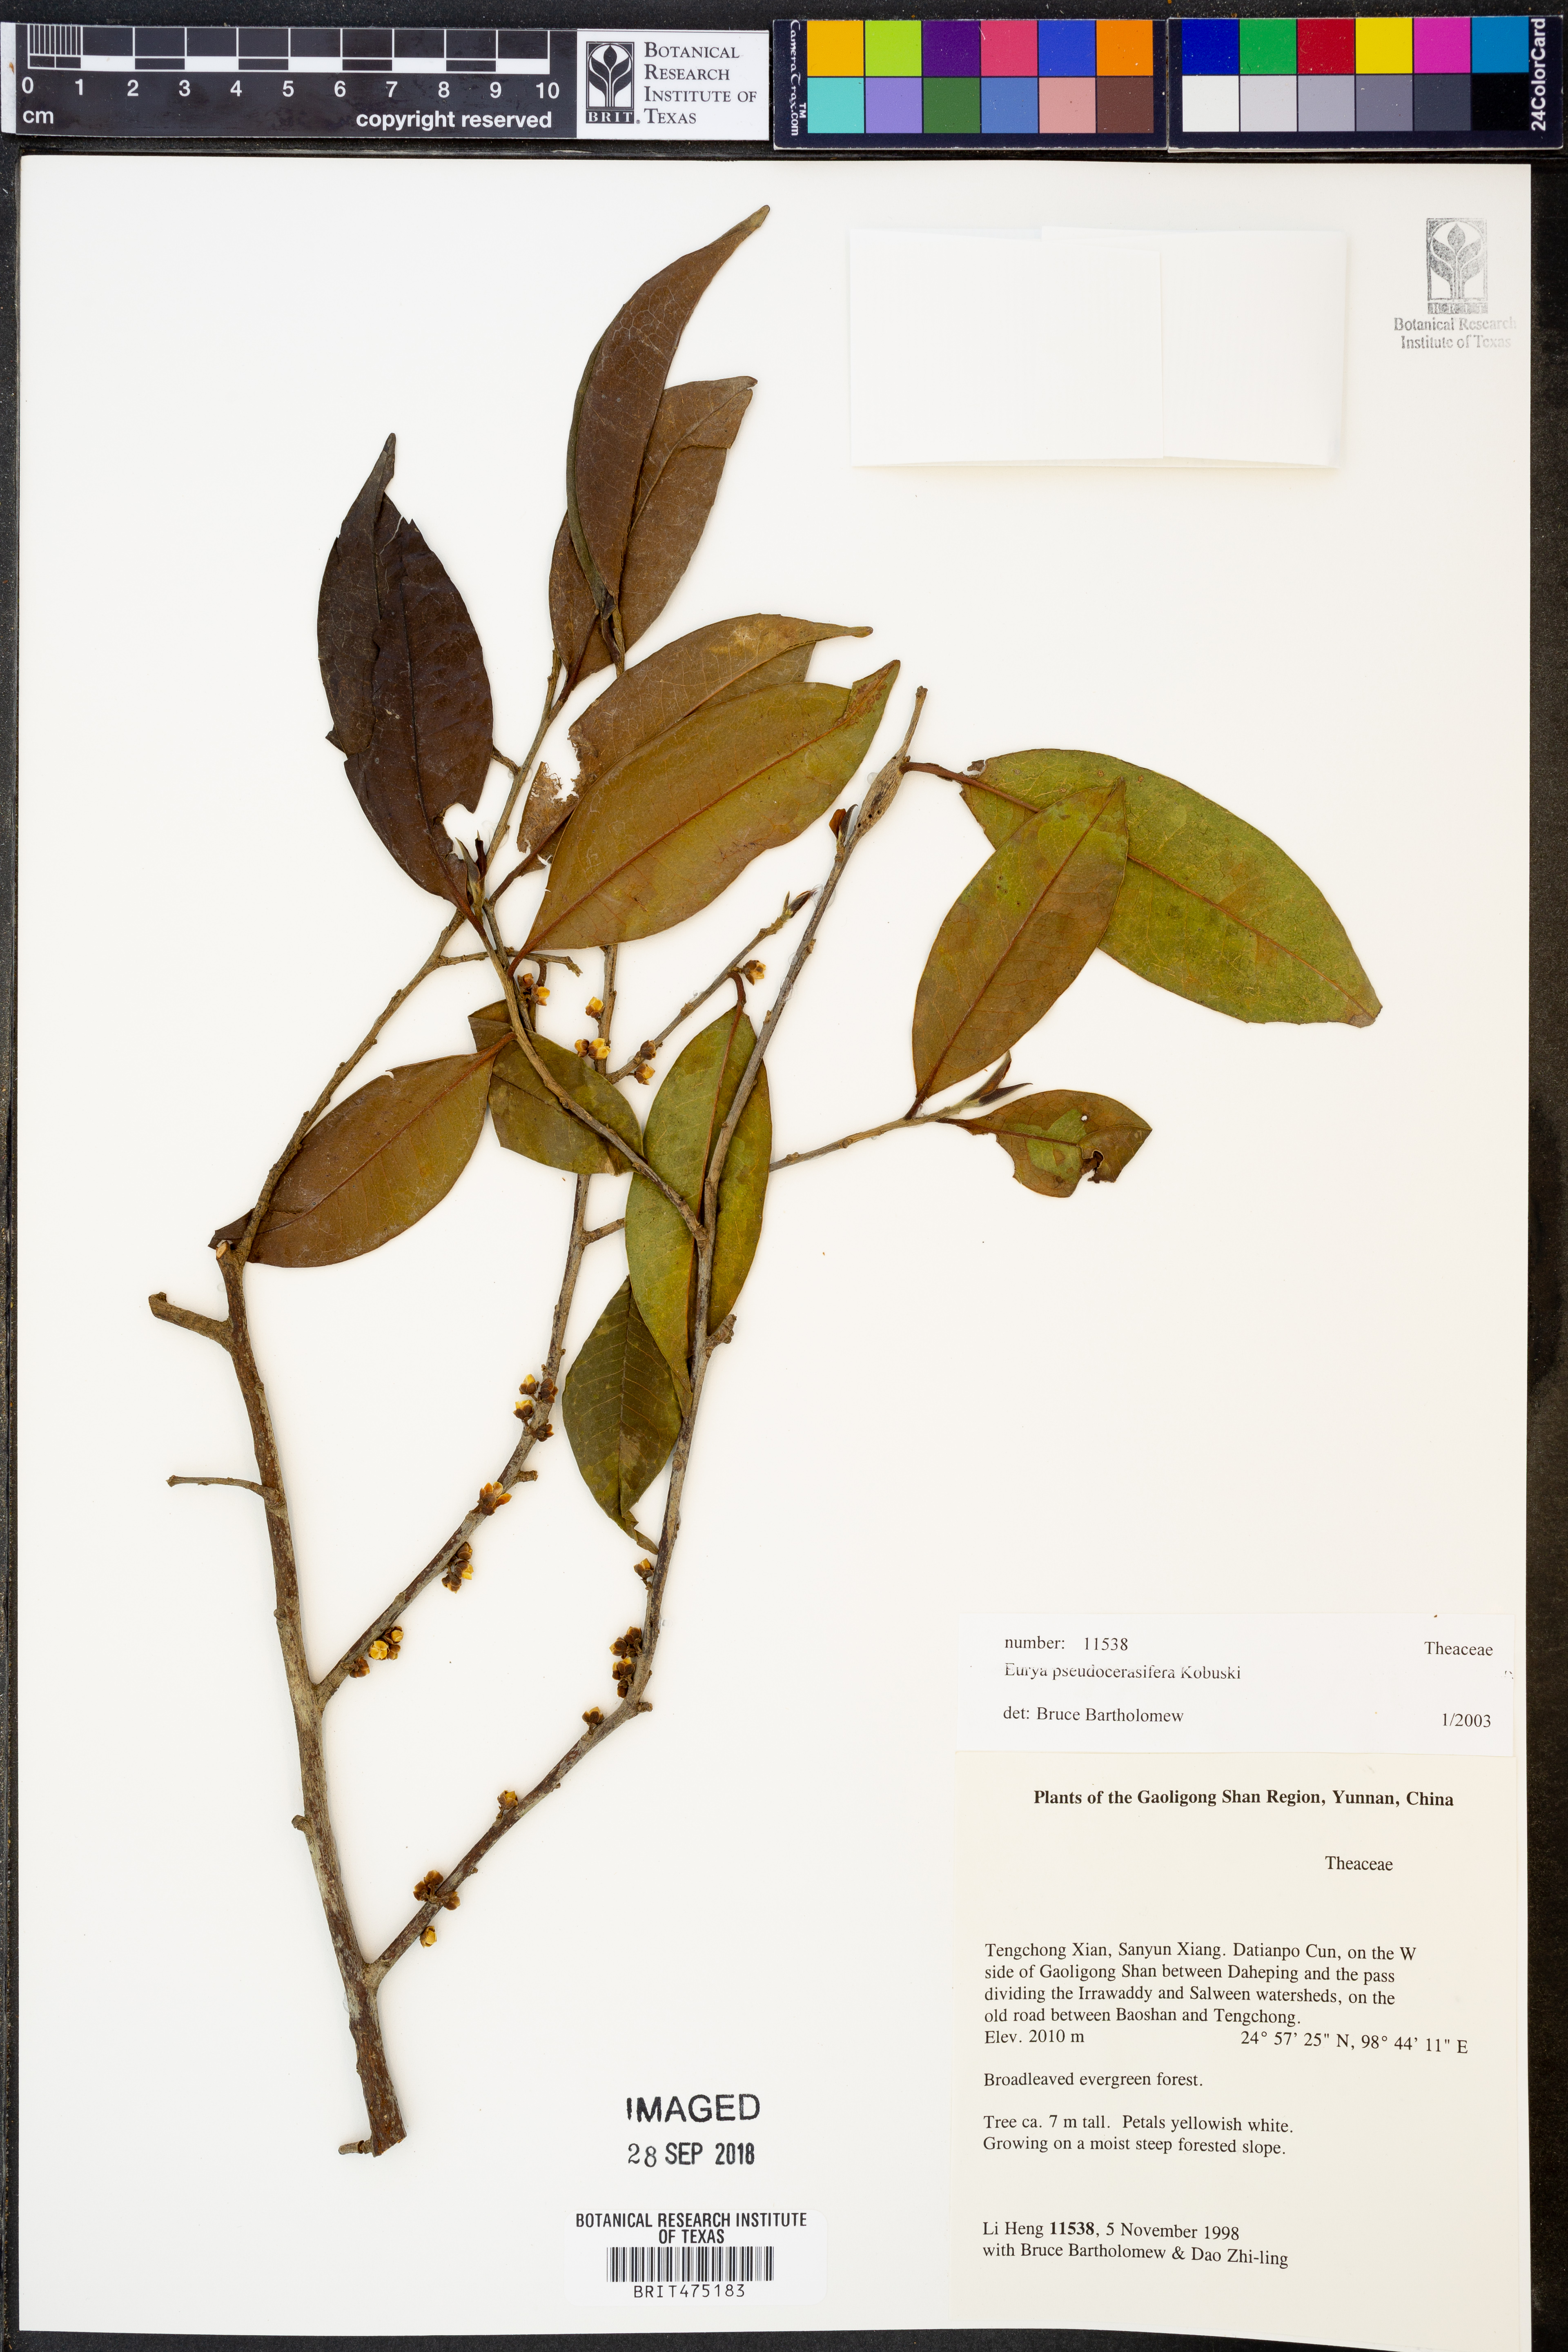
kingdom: Plantae
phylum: Tracheophyta
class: Magnoliopsida
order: Ericales
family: Pentaphylacaceae
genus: Eurya
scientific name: Eurya pseudocerasifera
